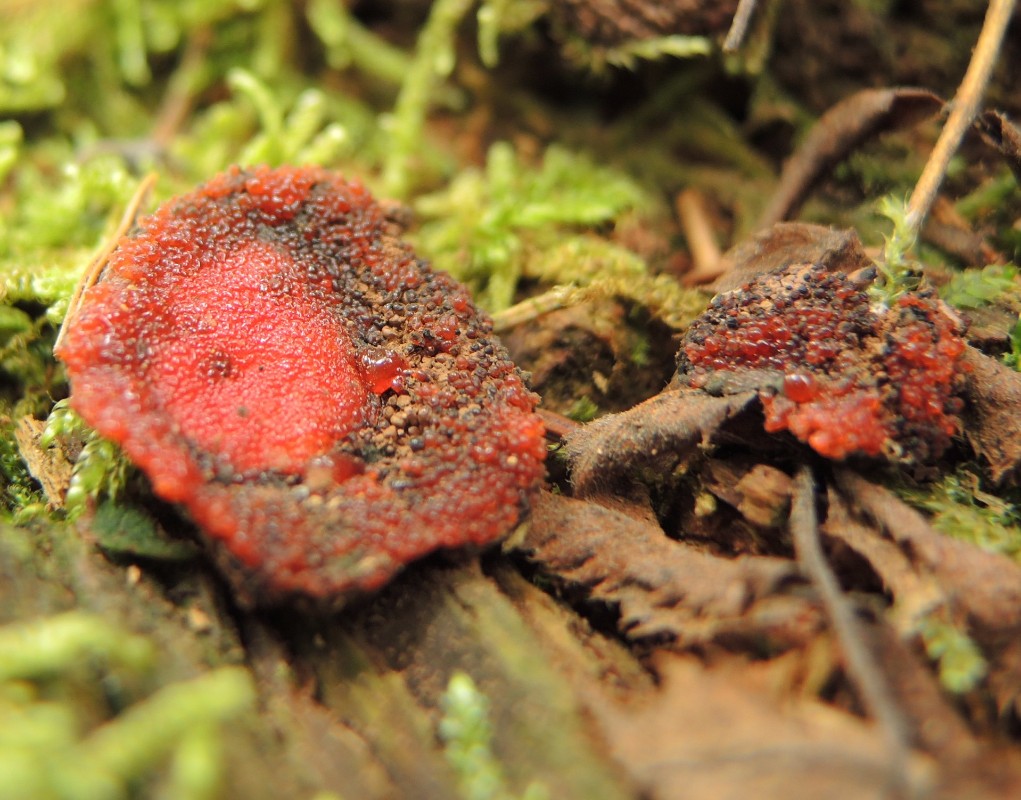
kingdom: Protozoa
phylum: Mycetozoa
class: Myxomycetes
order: Cribrariales
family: Tubiferaceae
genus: Tubifera
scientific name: Tubifera ferruginosa
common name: kanel-støvrør
